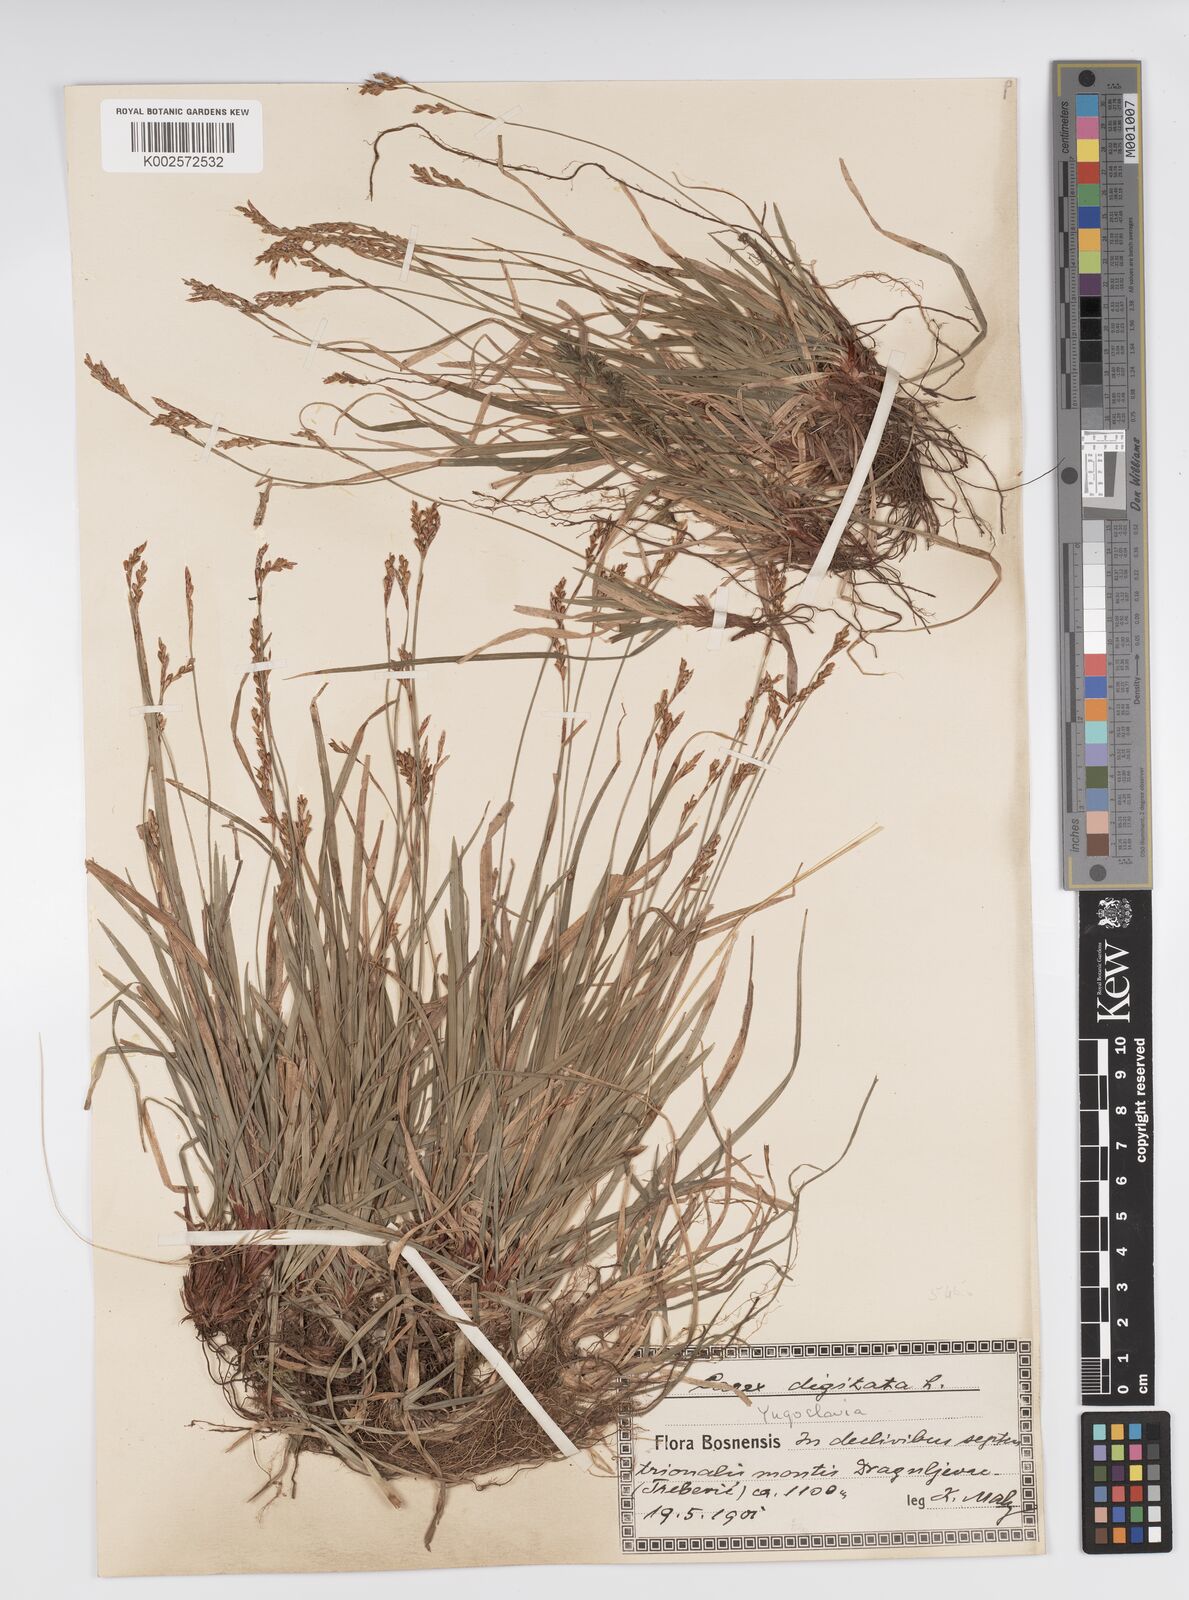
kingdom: Plantae
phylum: Tracheophyta
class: Liliopsida
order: Poales
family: Cyperaceae
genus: Carex
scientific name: Carex digitata
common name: Fingered sedge
